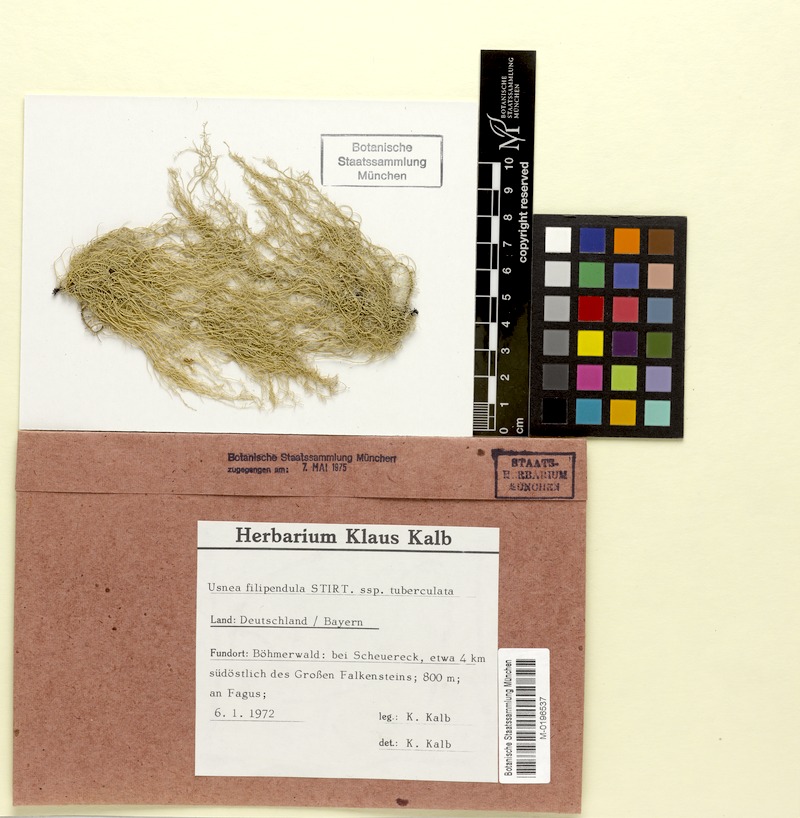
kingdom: Fungi
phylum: Ascomycota
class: Lecanoromycetes
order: Lecanorales
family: Parmeliaceae
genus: Usnea
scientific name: Usnea dasopoga
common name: Fishbone beard lichen
